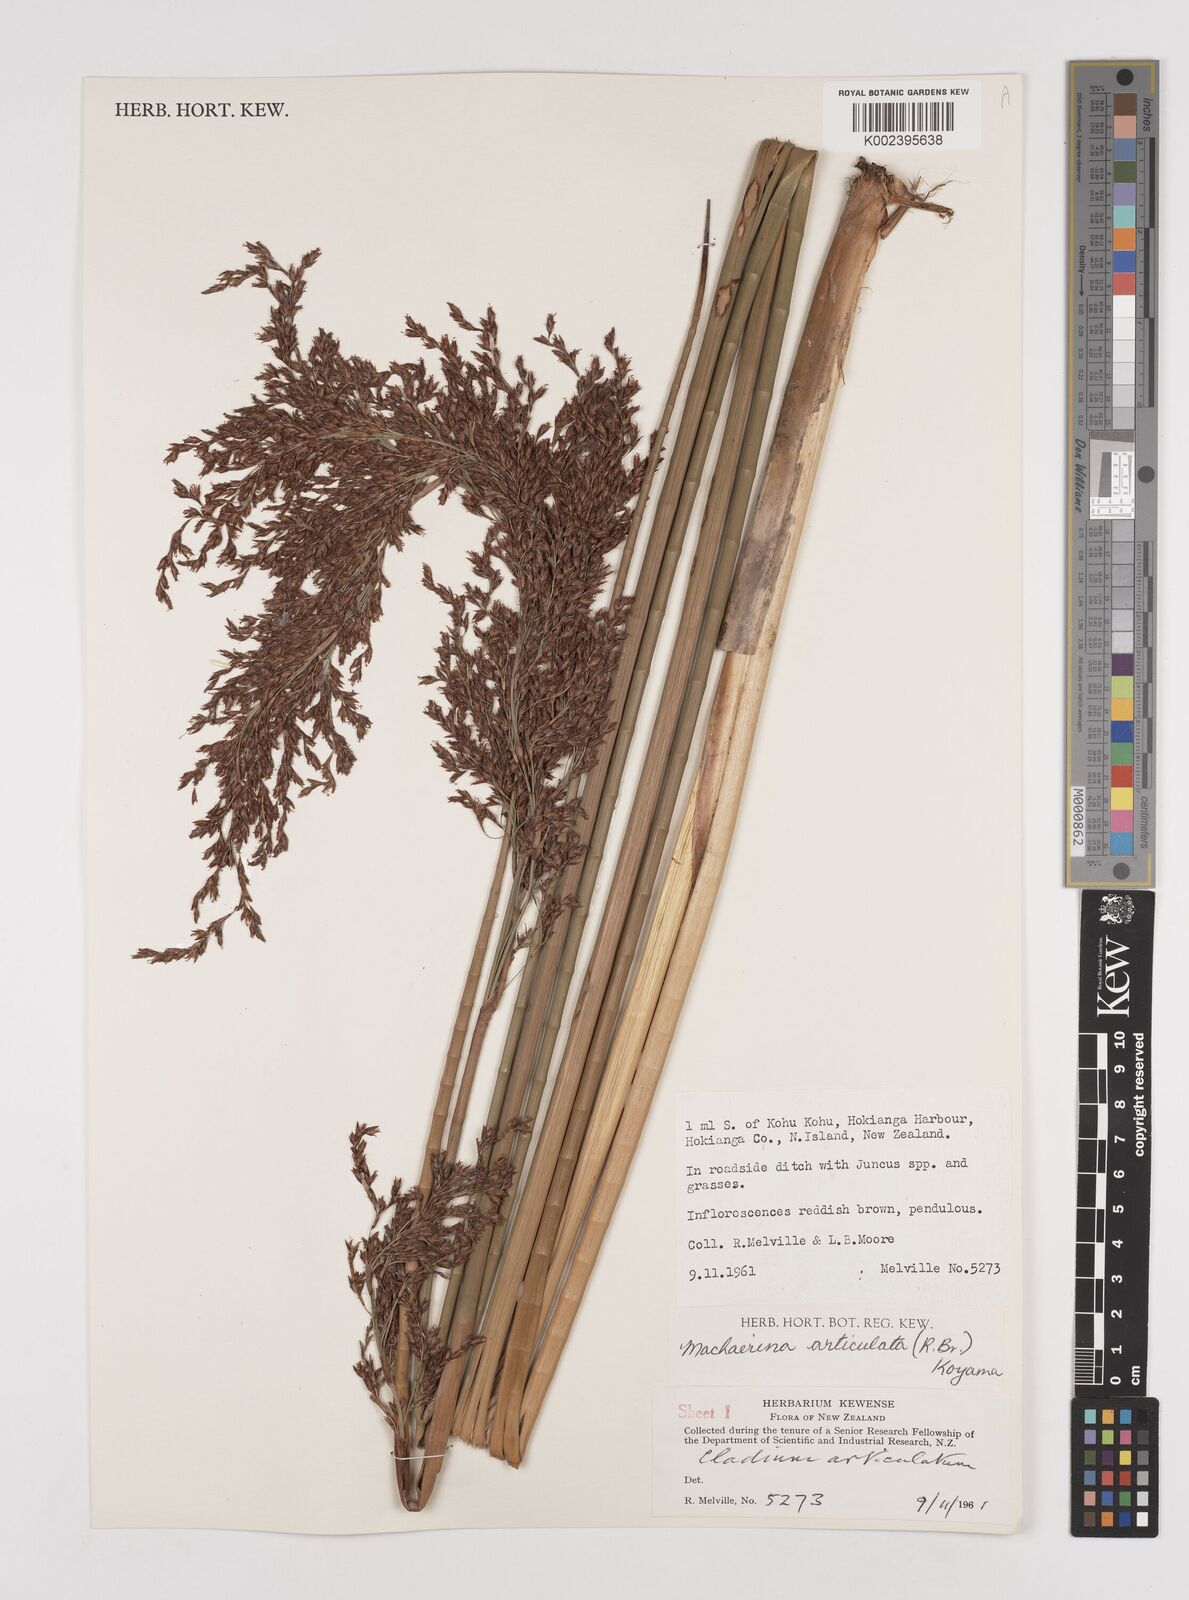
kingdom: Plantae
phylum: Tracheophyta
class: Liliopsida
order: Poales
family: Cyperaceae
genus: Machaerina
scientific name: Machaerina articulata
